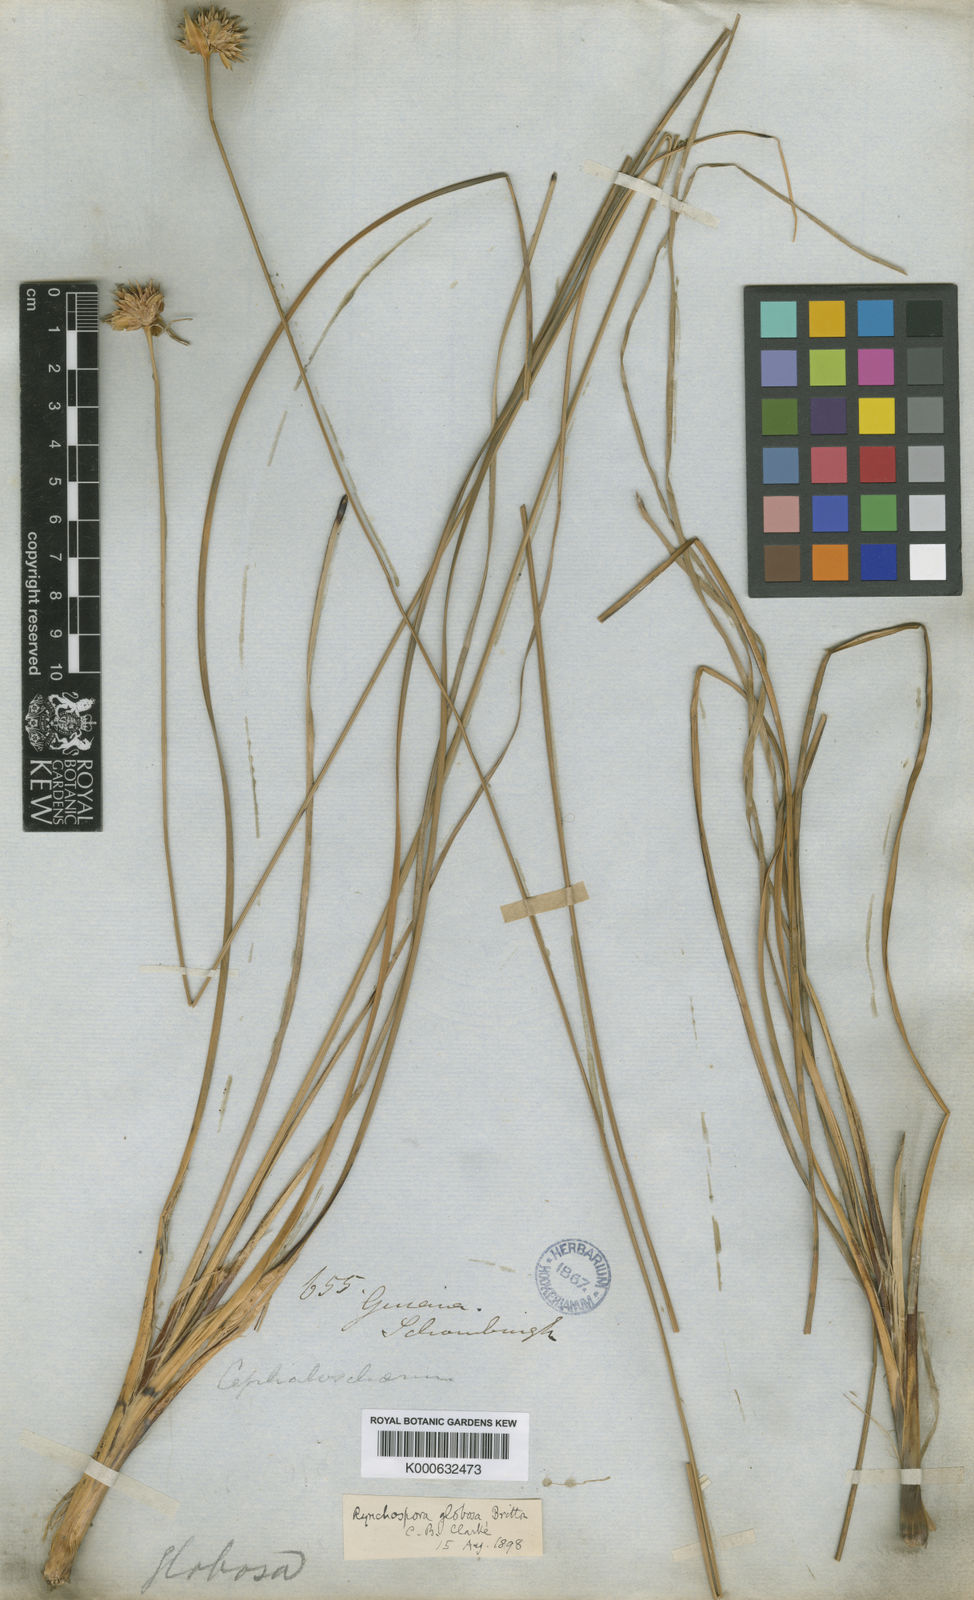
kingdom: Plantae
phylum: Tracheophyta
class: Liliopsida
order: Poales
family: Cyperaceae
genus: Rhynchospora
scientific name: Rhynchospora globosa
